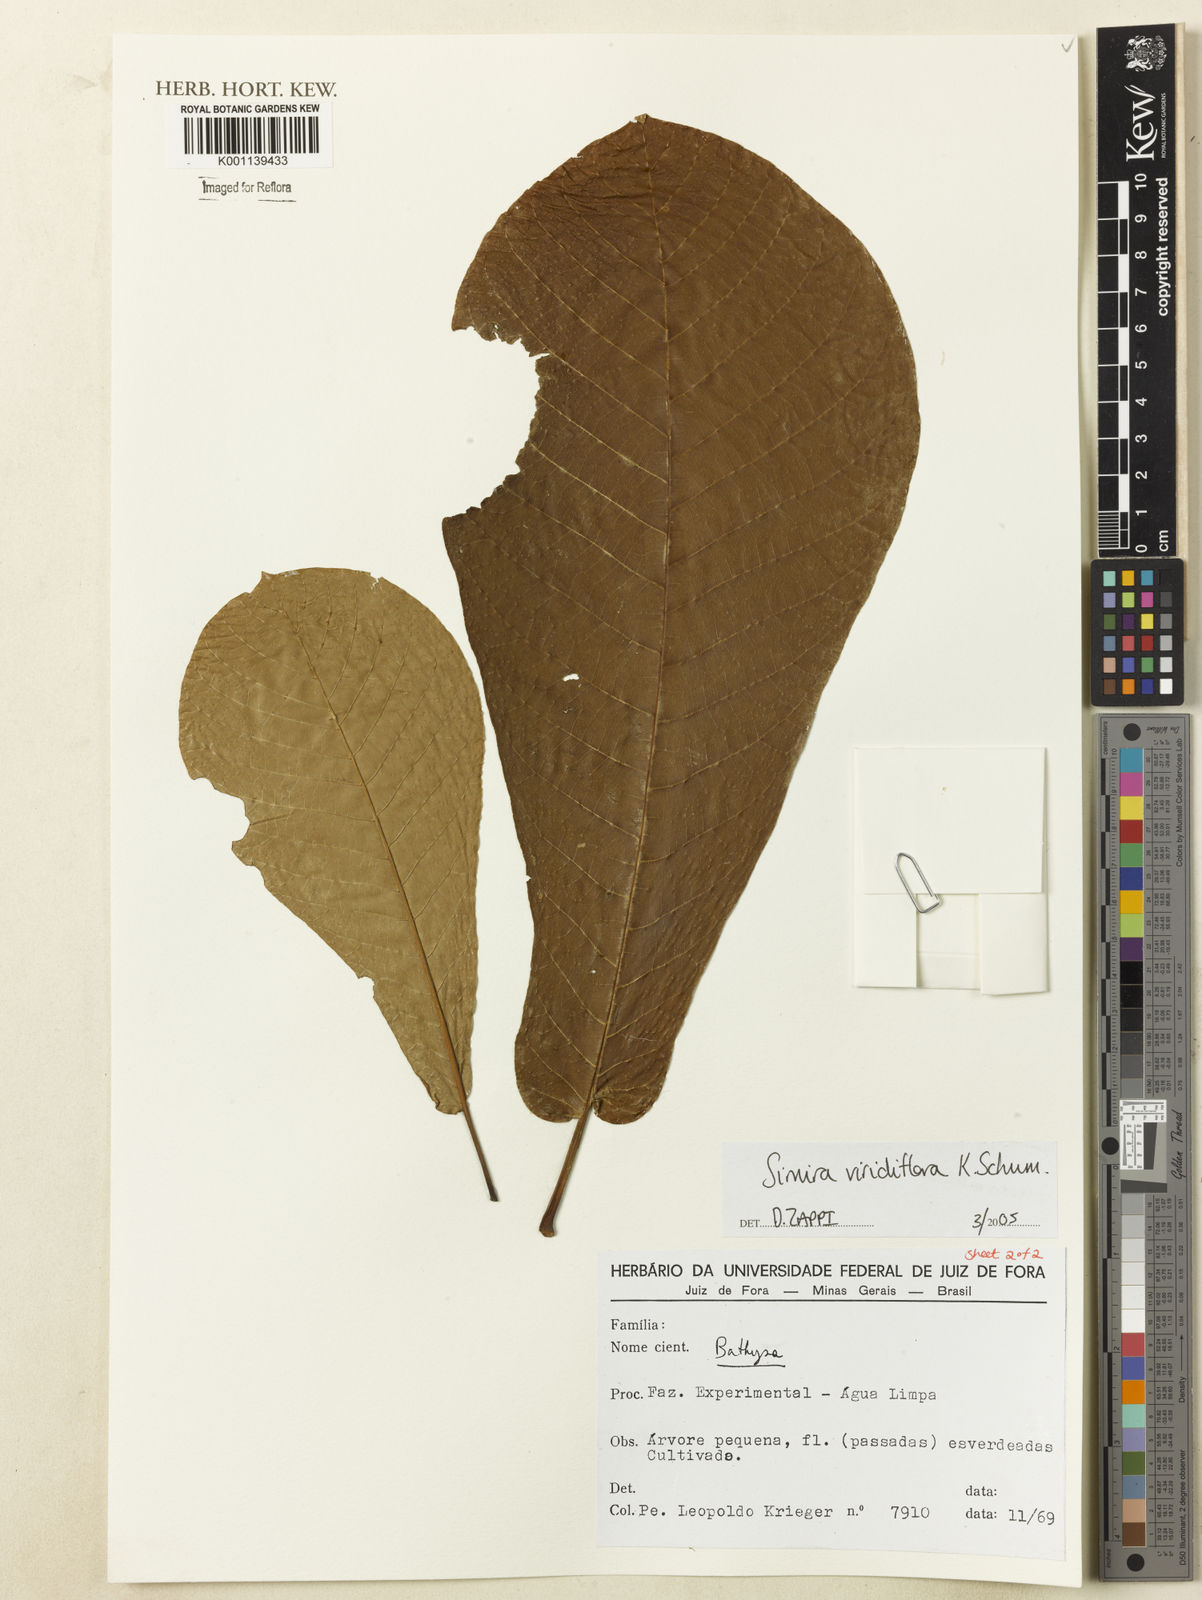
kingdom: Plantae
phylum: Tracheophyta
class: Magnoliopsida
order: Gentianales
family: Rubiaceae
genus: Simira
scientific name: Simira
